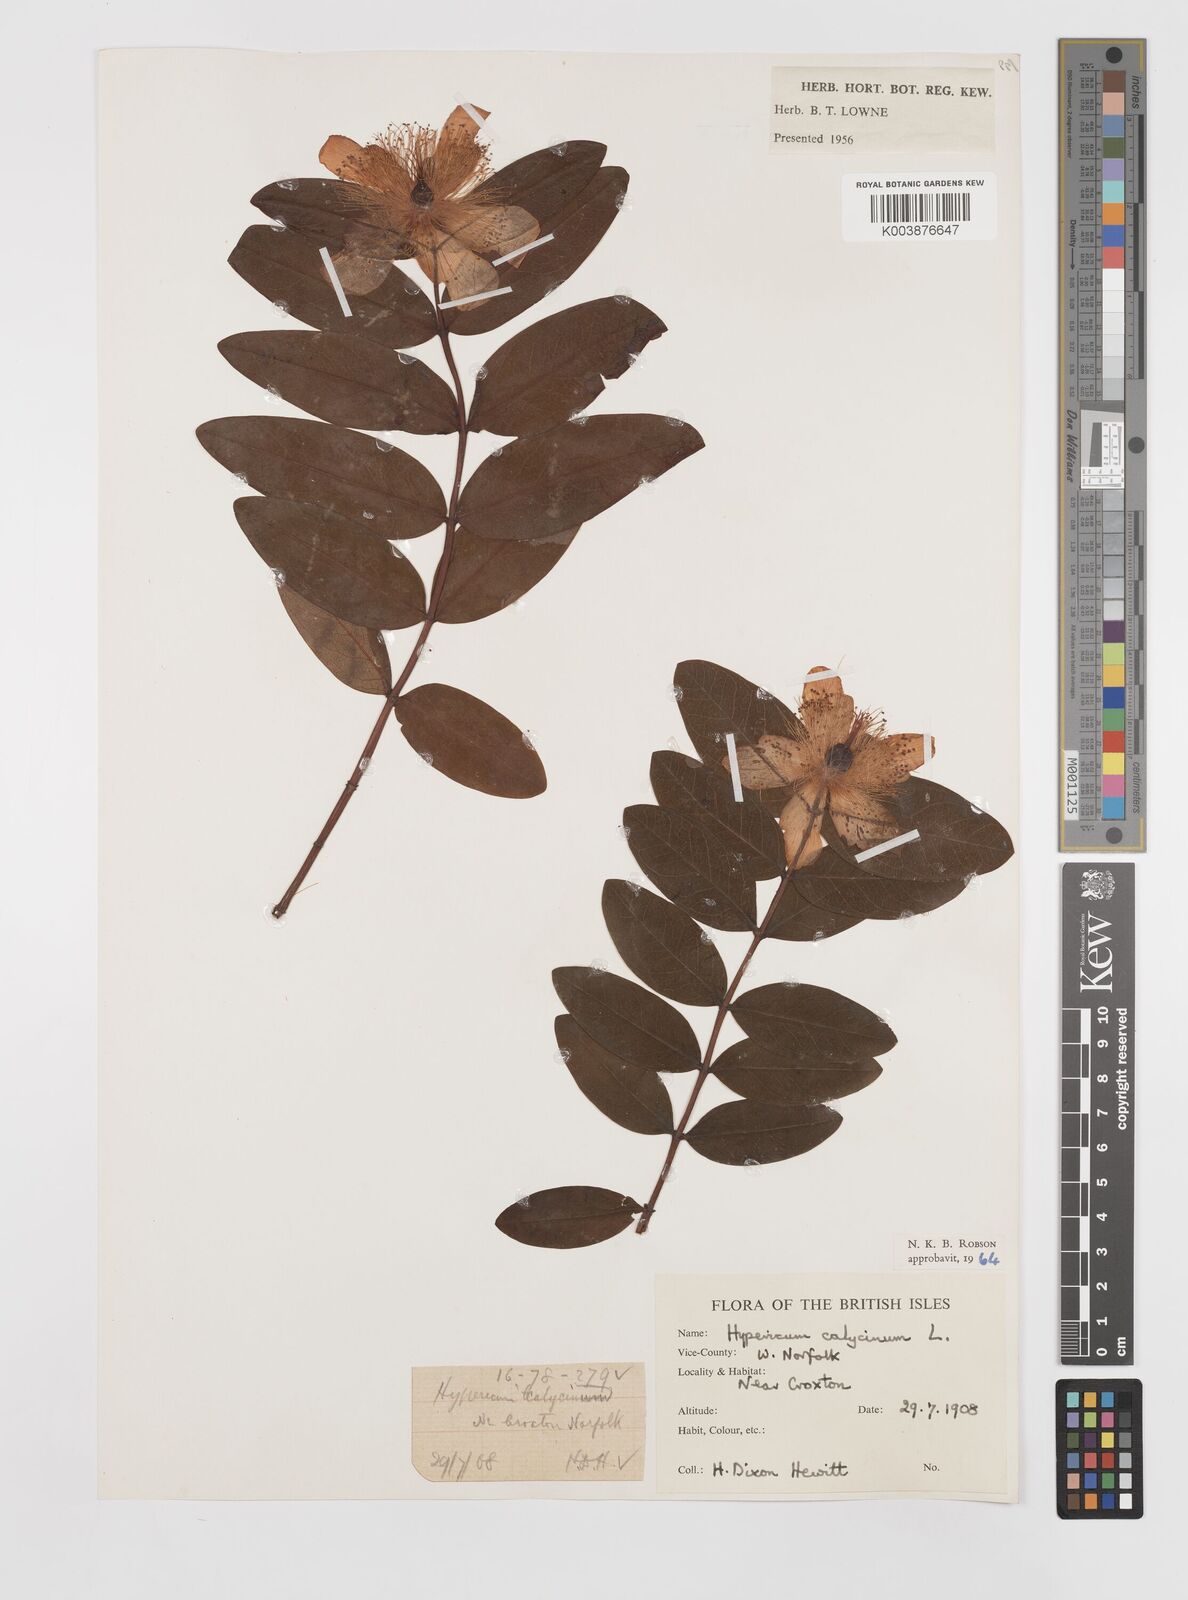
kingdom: Plantae
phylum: Tracheophyta
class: Magnoliopsida
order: Malpighiales
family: Hypericaceae
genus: Hypericum
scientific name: Hypericum calycinum
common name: Rose-of-sharon
